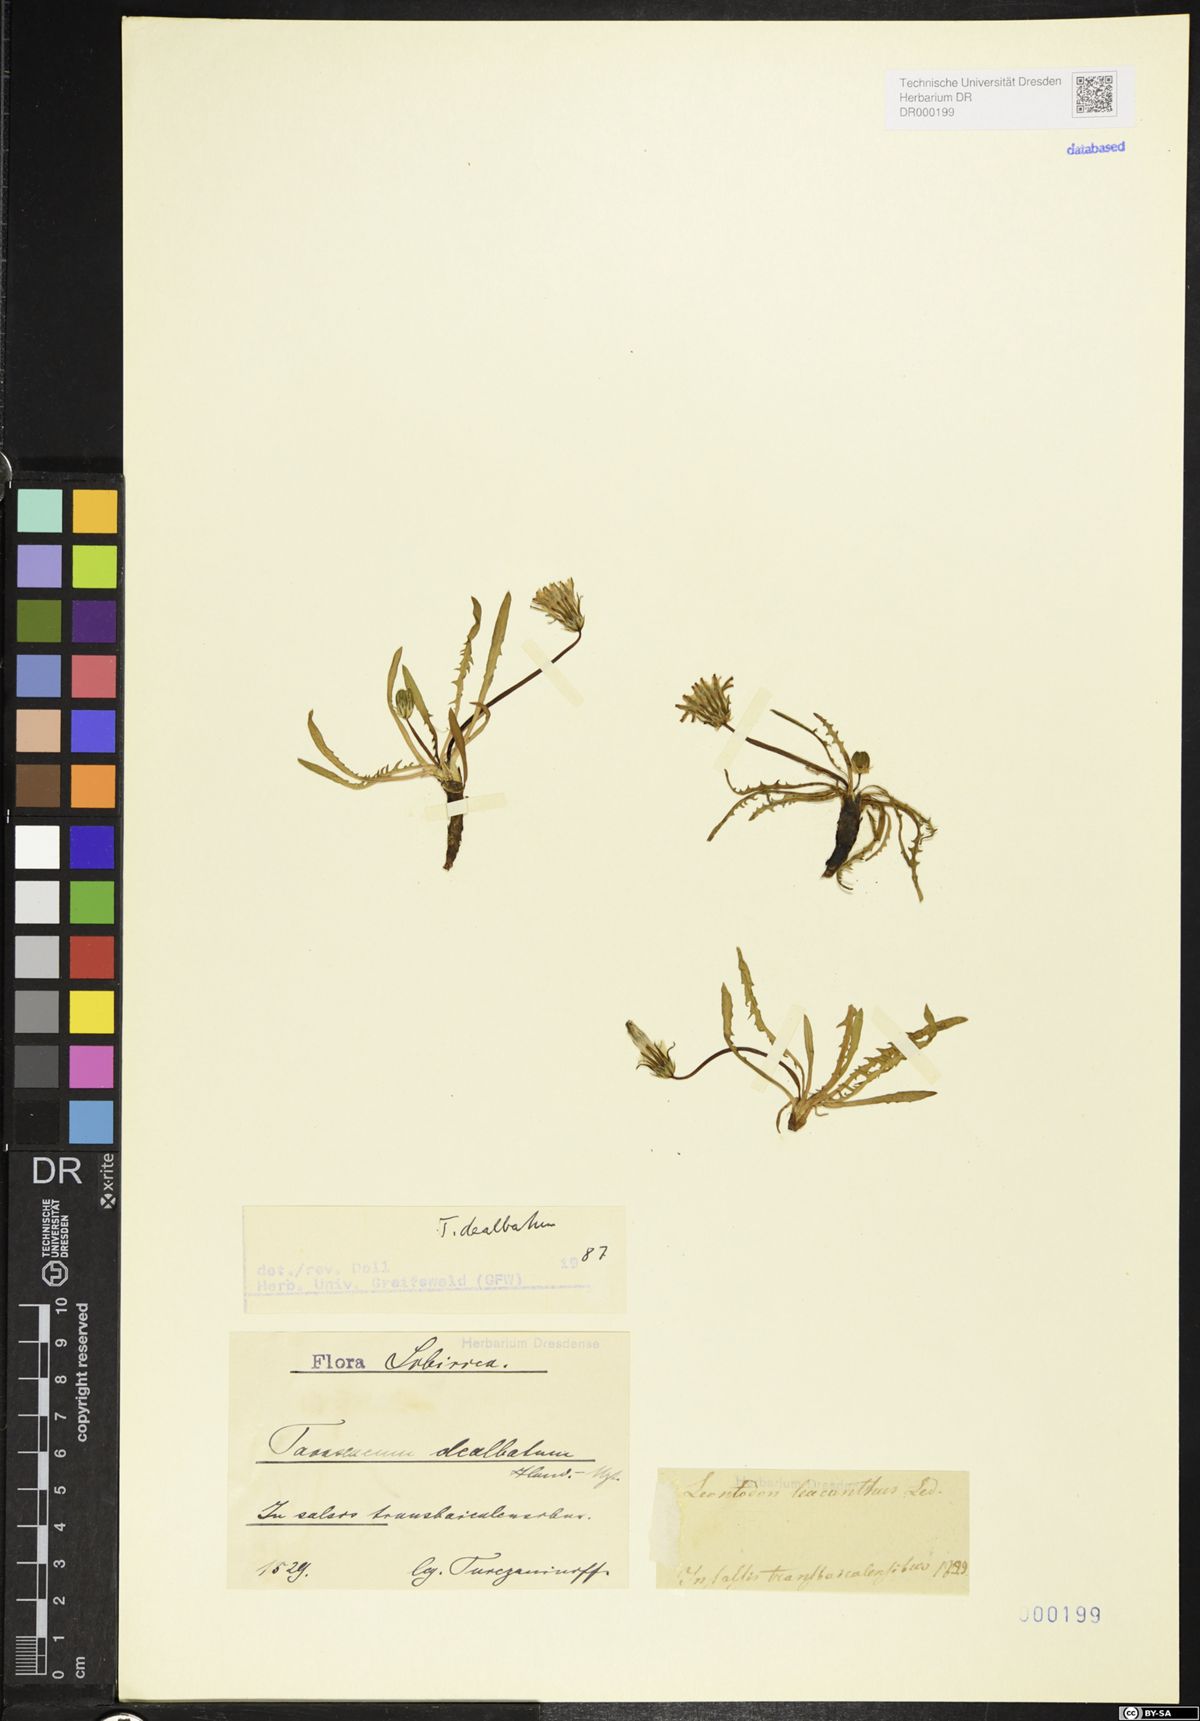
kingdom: Plantae
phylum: Tracheophyta
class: Magnoliopsida
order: Asterales
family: Asteraceae
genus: Taraxacum
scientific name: Taraxacum dealbatum
